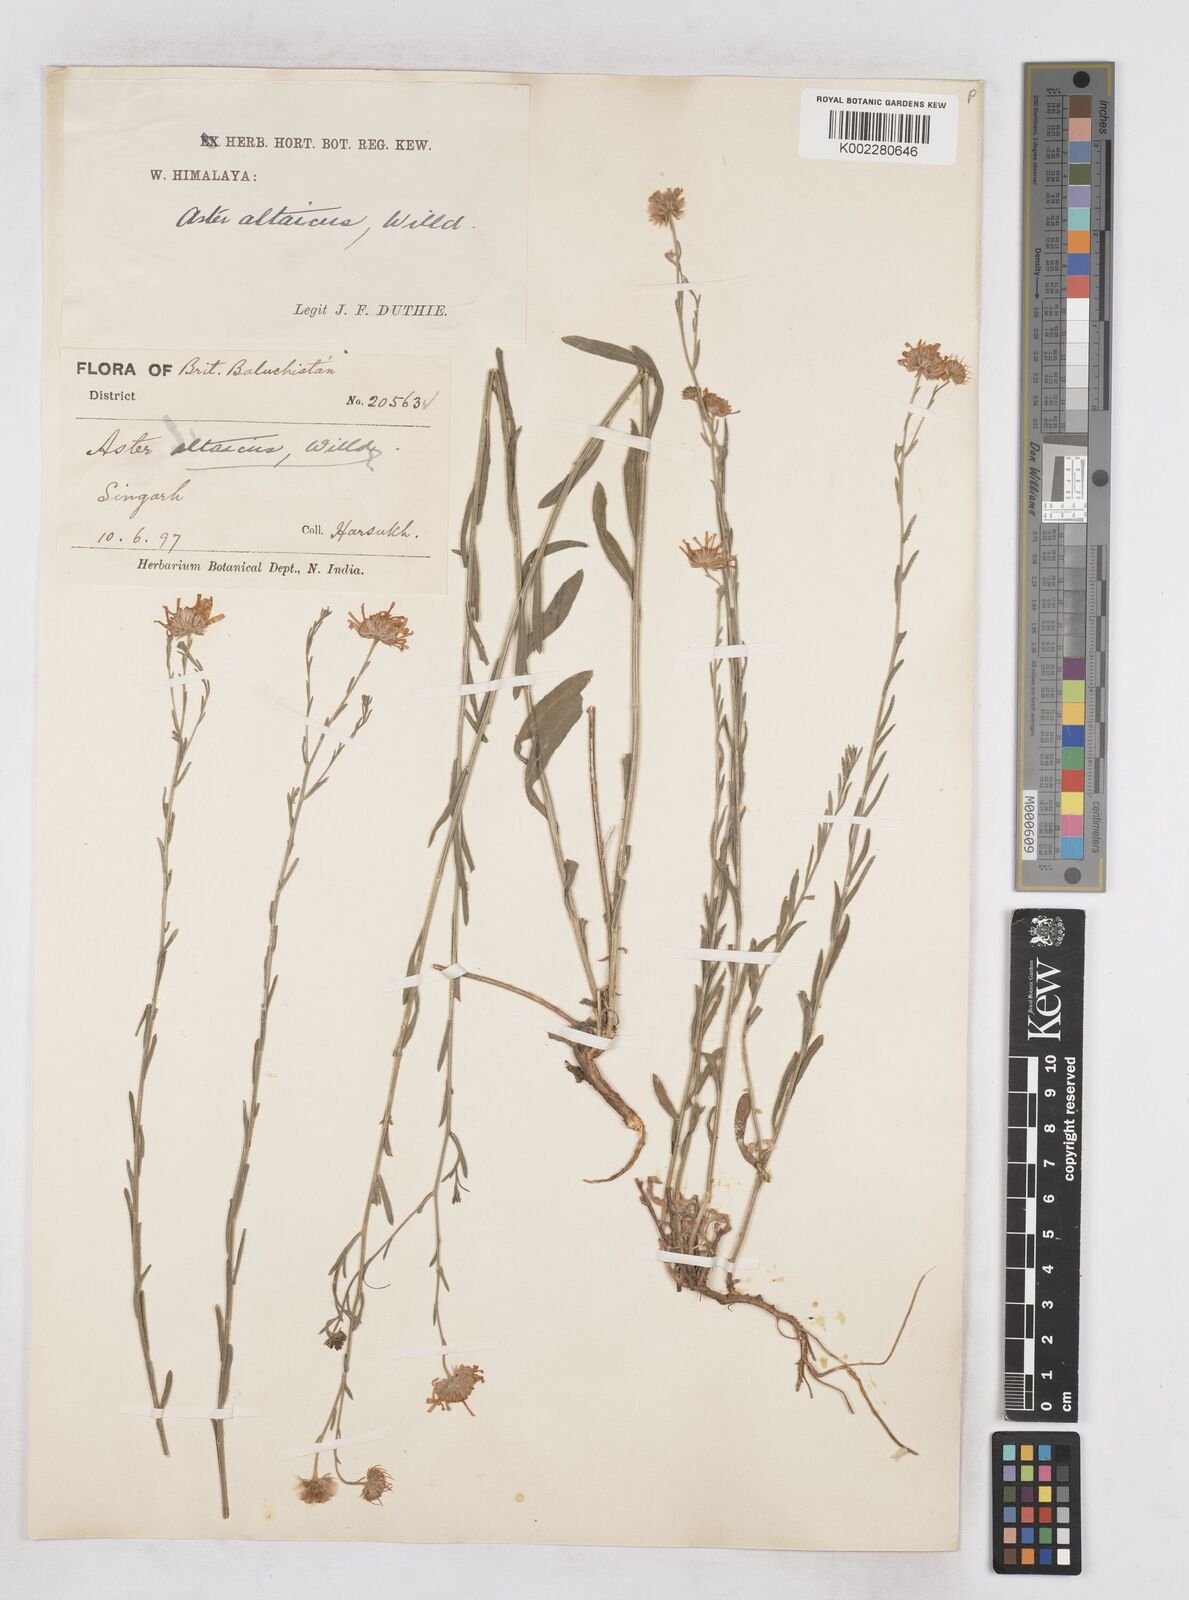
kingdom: Plantae
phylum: Tracheophyta
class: Magnoliopsida
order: Asterales
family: Asteraceae
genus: Heteropappus
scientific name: Heteropappus altaicus
